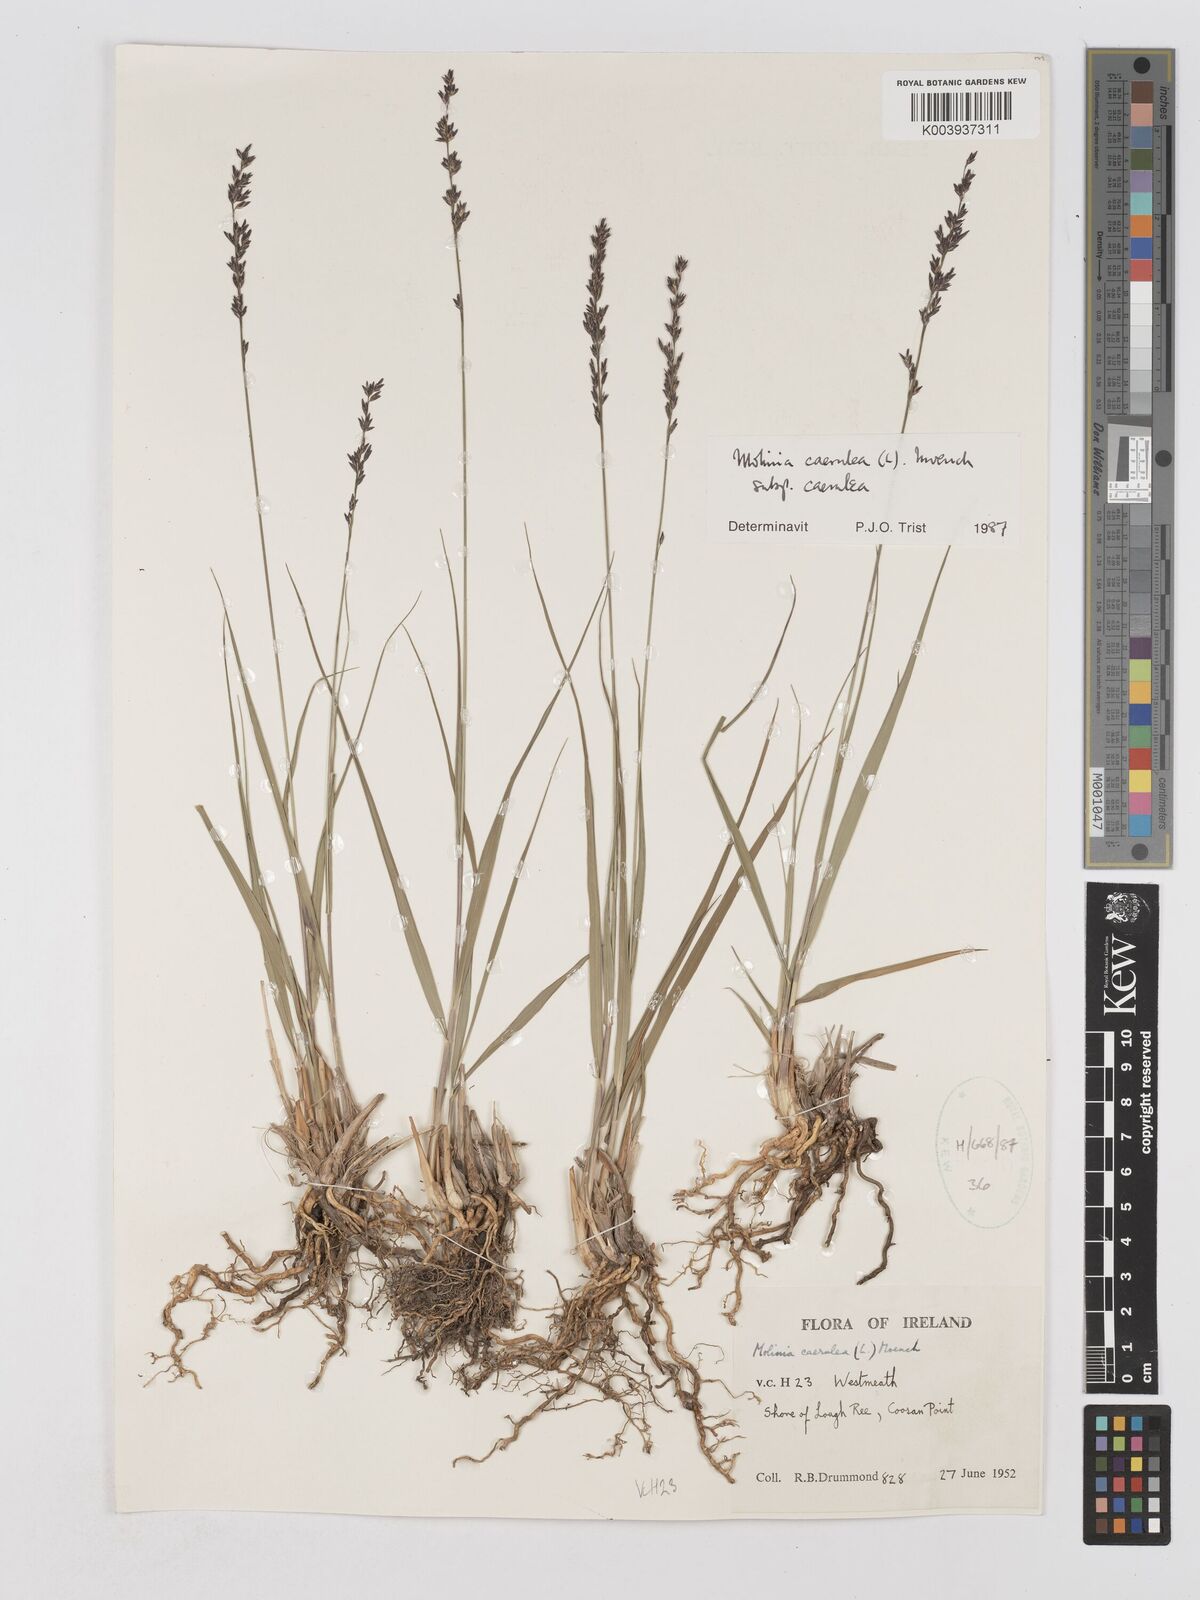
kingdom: Plantae
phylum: Tracheophyta
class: Liliopsida
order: Poales
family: Poaceae
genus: Molinia
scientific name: Molinia caerulea
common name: Purple moor-grass
